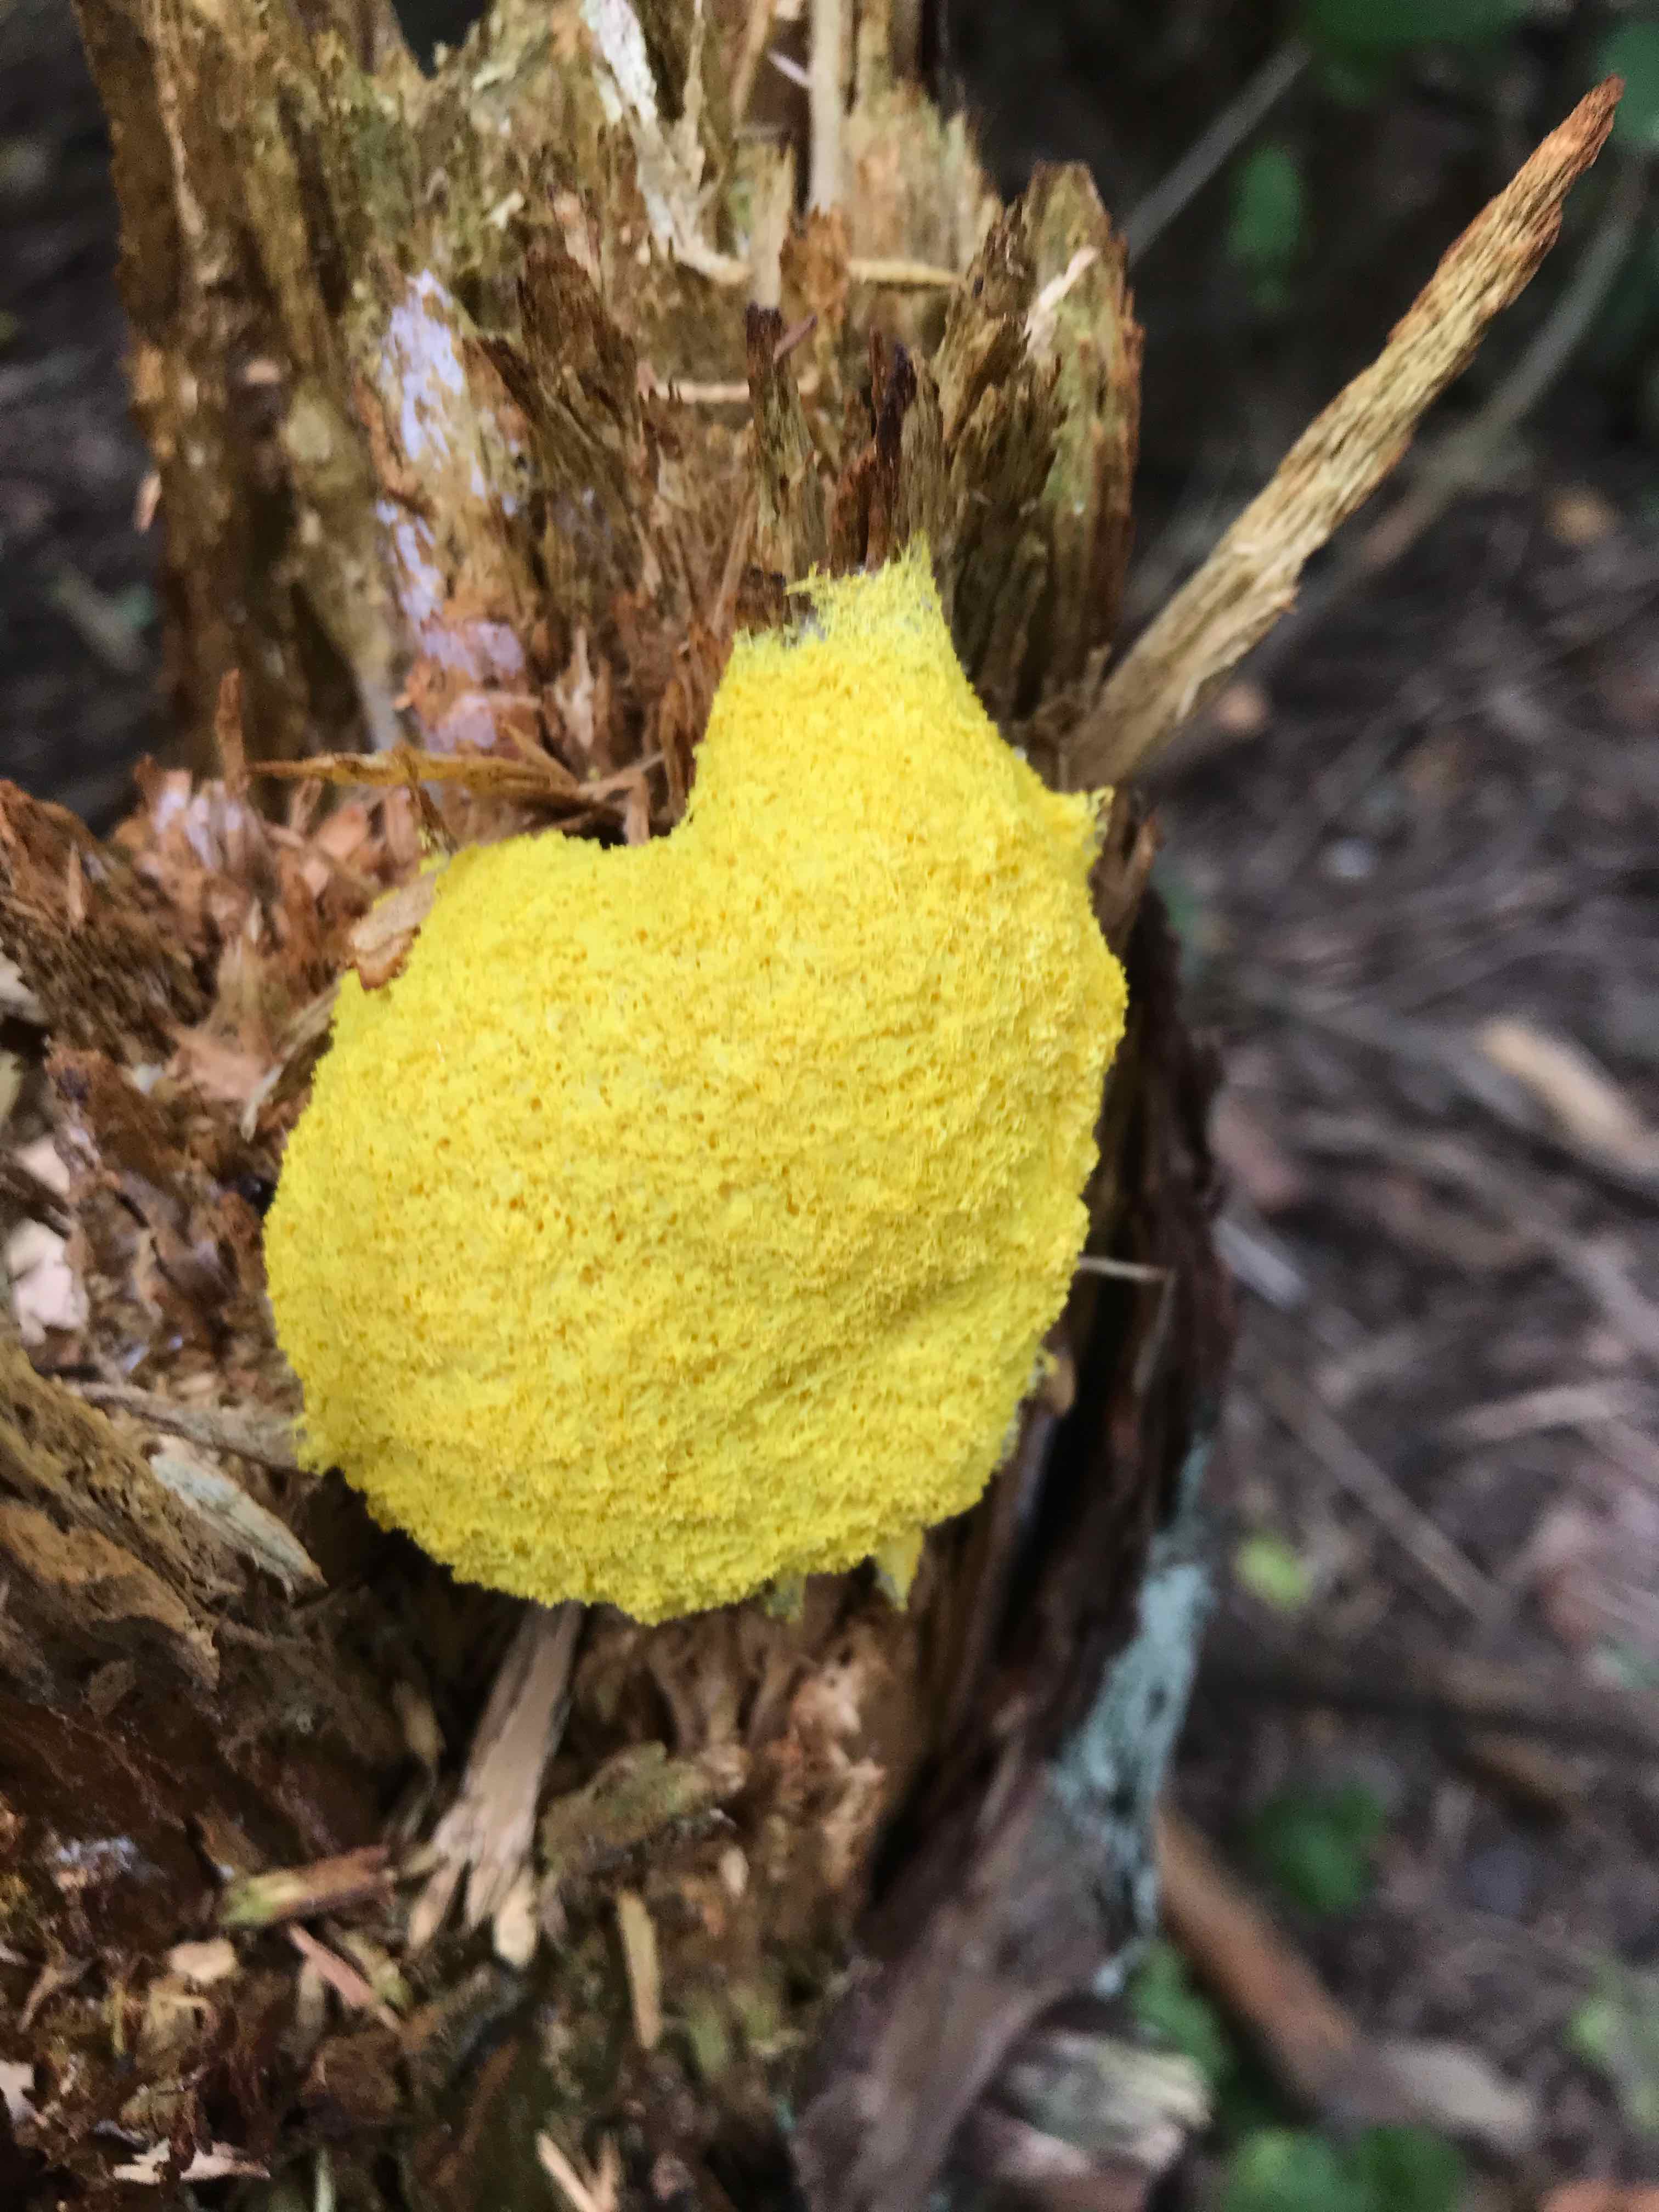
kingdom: Protozoa
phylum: Mycetozoa
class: Myxomycetes
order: Physarales
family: Physaraceae
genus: Fuligo
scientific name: Fuligo septica
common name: gul troldsmør
